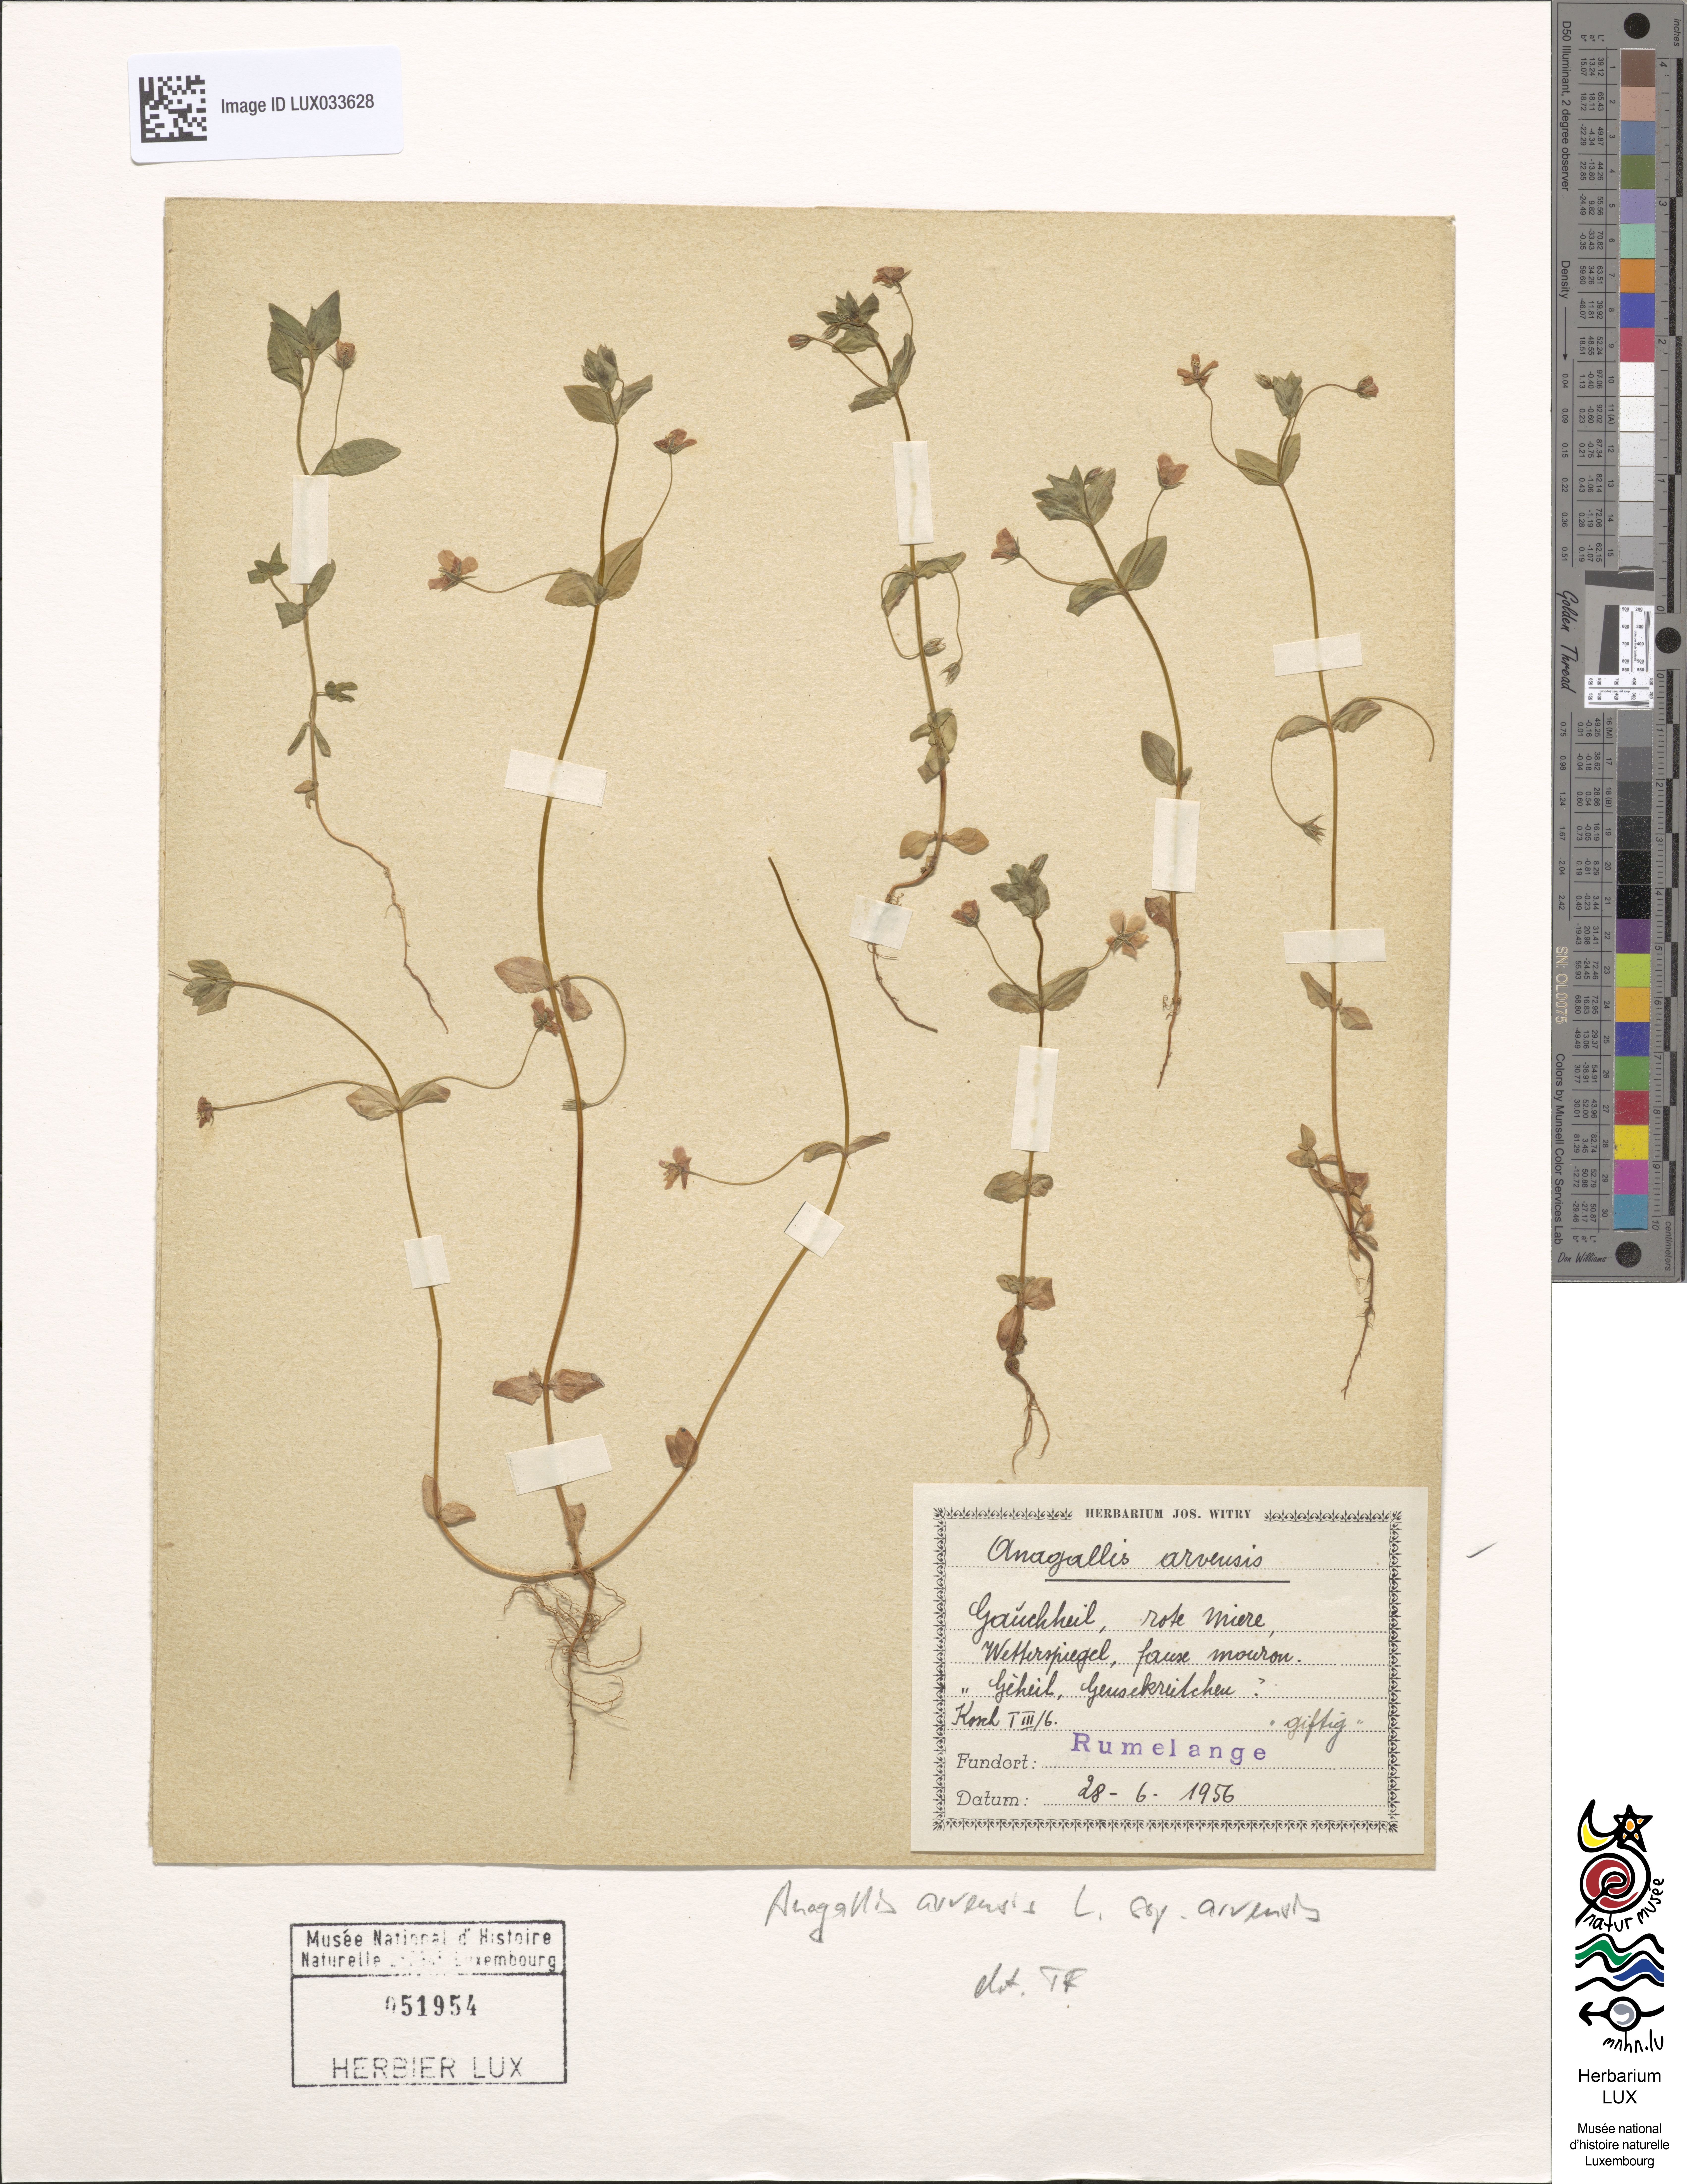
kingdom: Plantae
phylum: Tracheophyta
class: Magnoliopsida
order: Ericales
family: Primulaceae
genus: Lysimachia
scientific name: Lysimachia arvensis
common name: Scarlet pimpernel
